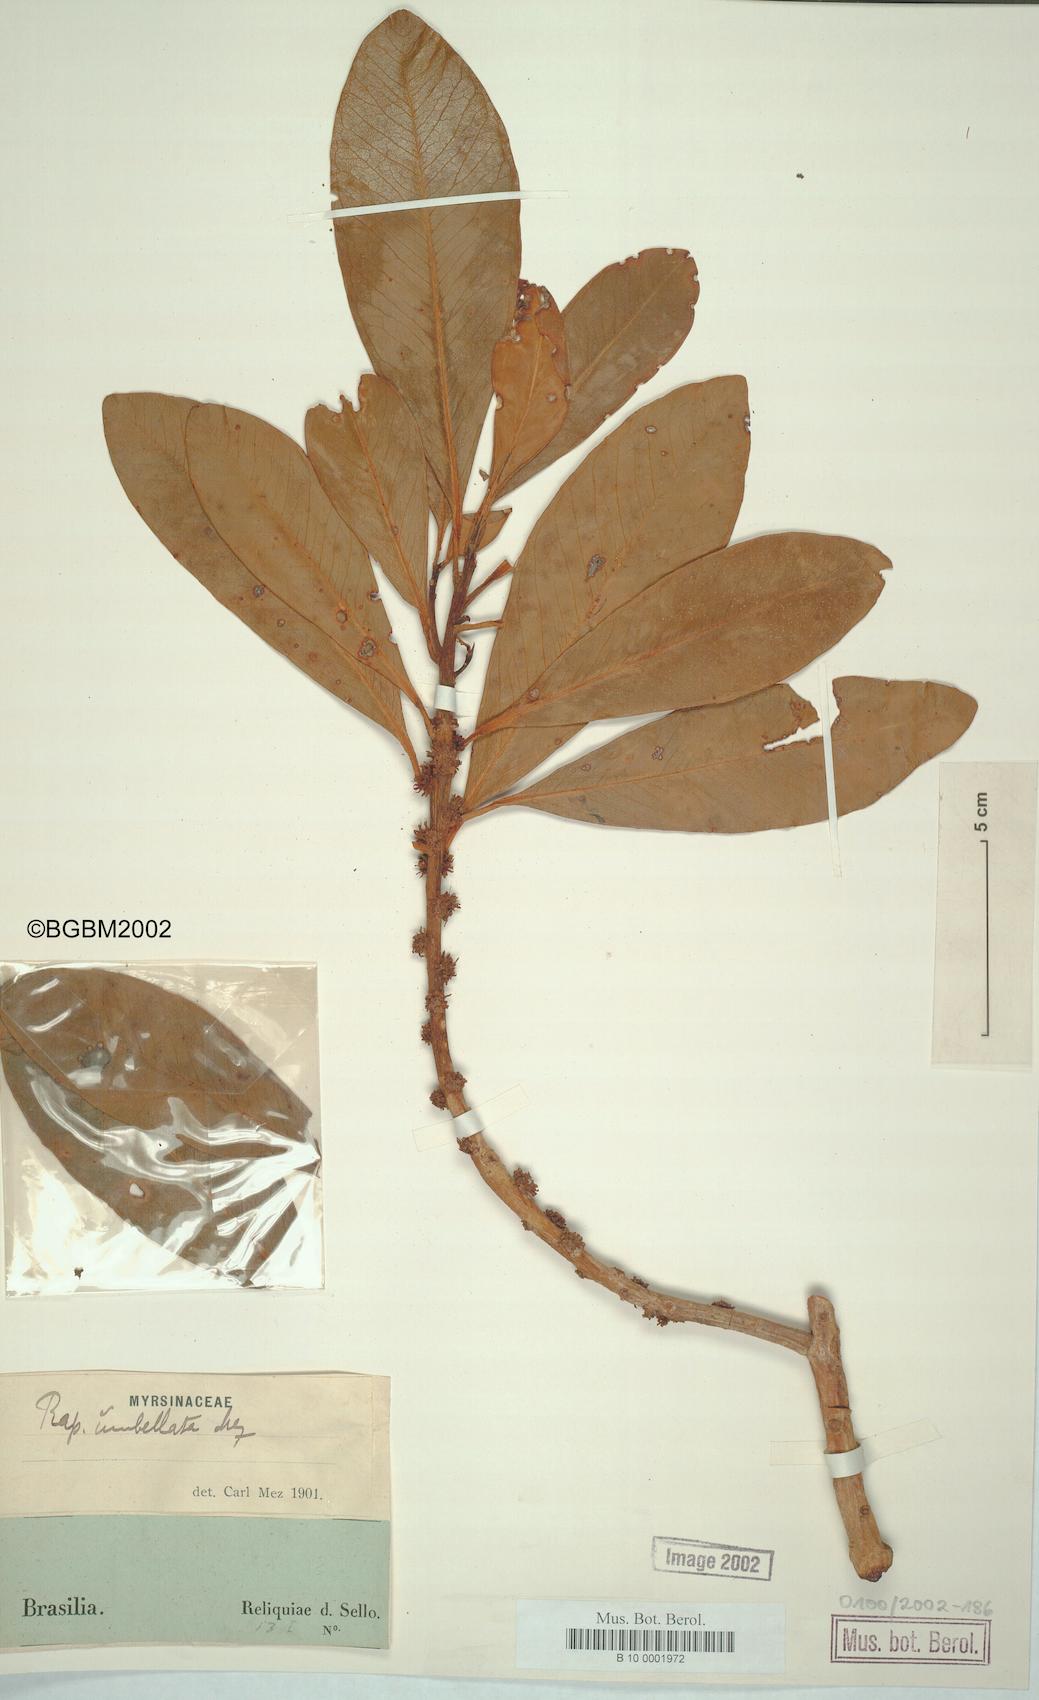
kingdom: Plantae
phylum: Tracheophyta
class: Magnoliopsida
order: Ericales
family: Primulaceae
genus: Myrsine
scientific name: Myrsine umbellata
